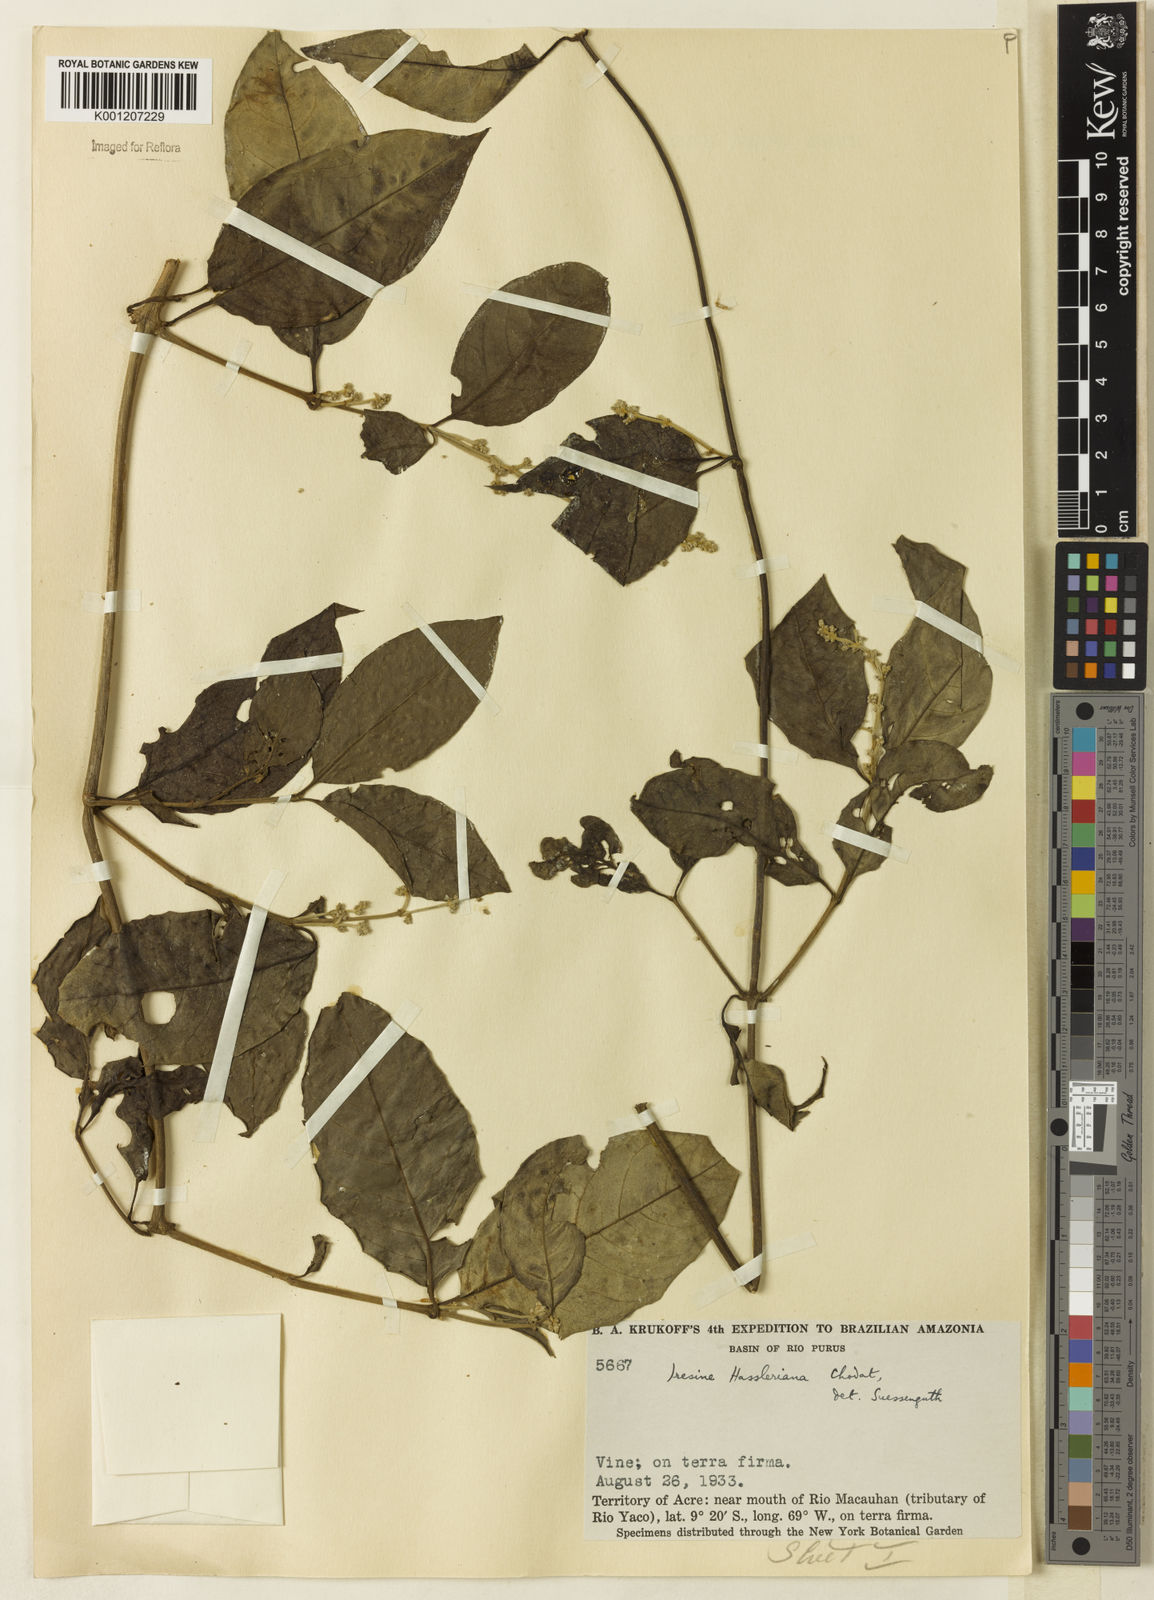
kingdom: Plantae
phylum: Tracheophyta
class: Magnoliopsida
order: Caryophyllales
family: Amaranthaceae
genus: Pedersenia
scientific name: Pedersenia hassleriana
